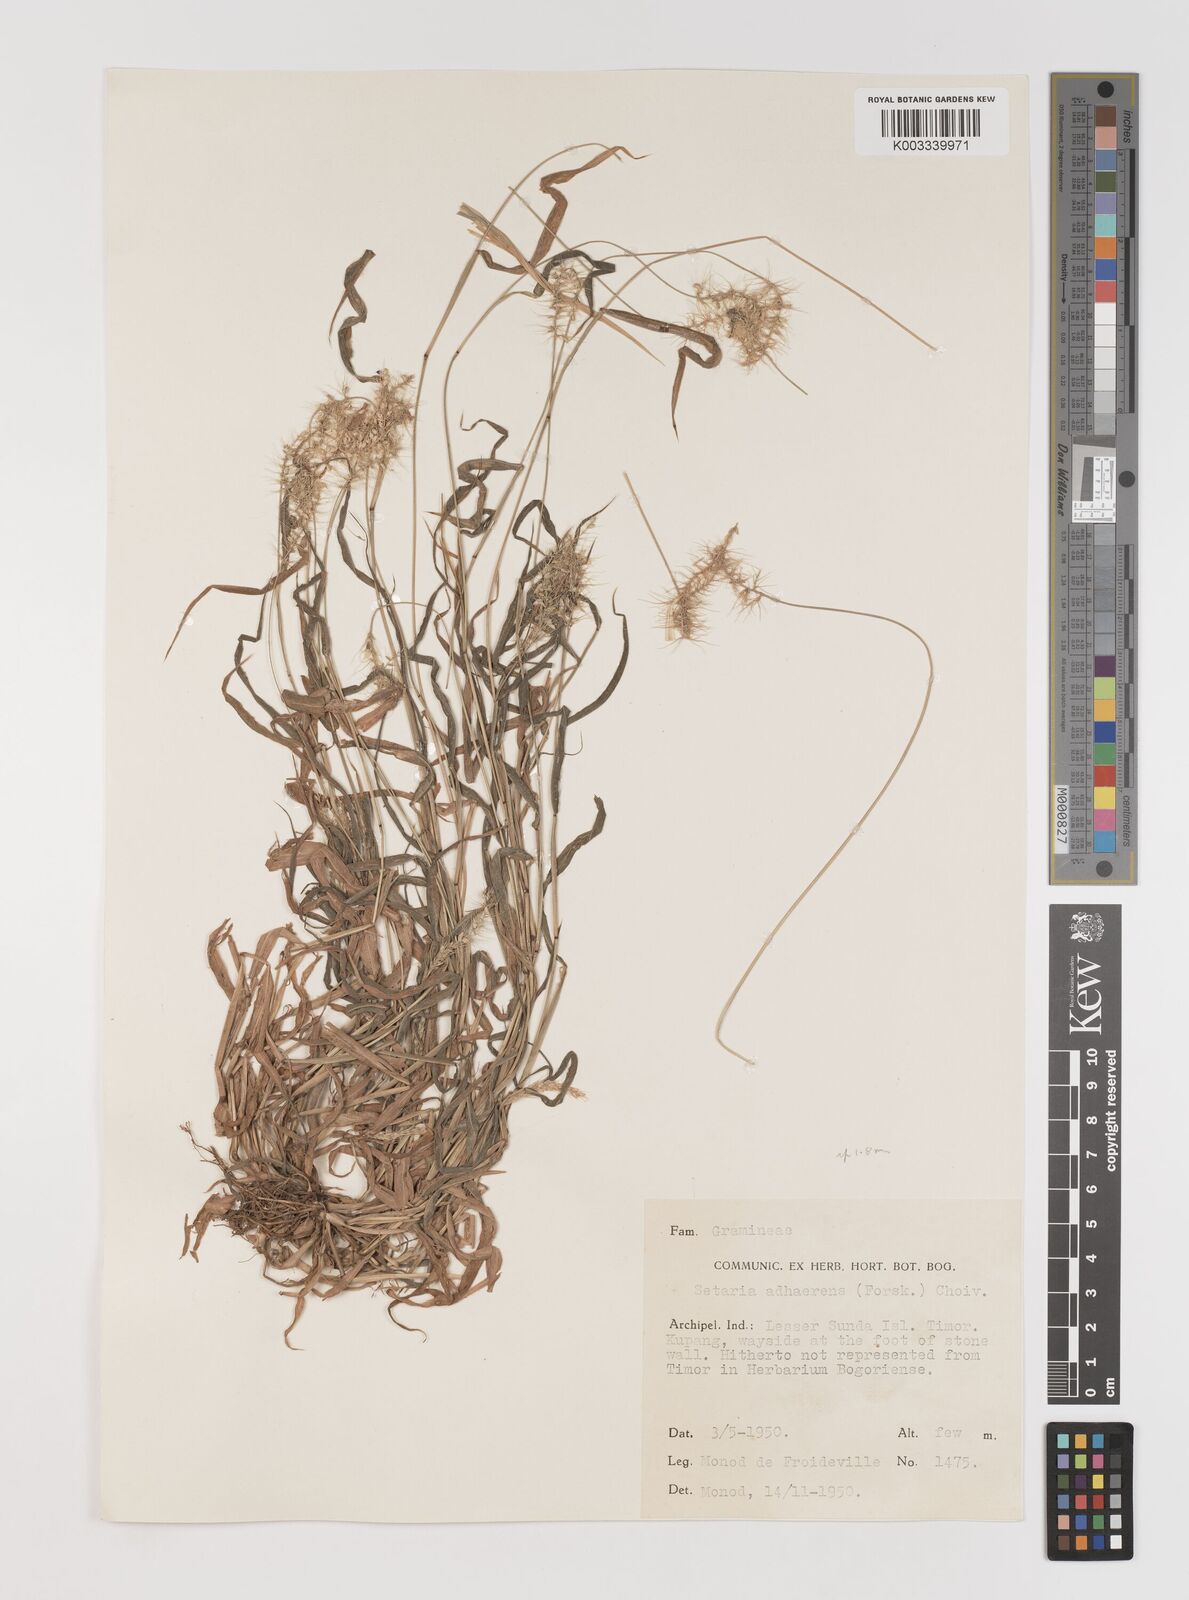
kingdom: Plantae
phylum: Tracheophyta
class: Liliopsida
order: Poales
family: Poaceae
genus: Setaria
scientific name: Setaria verticillata
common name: Hooked bristlegrass
